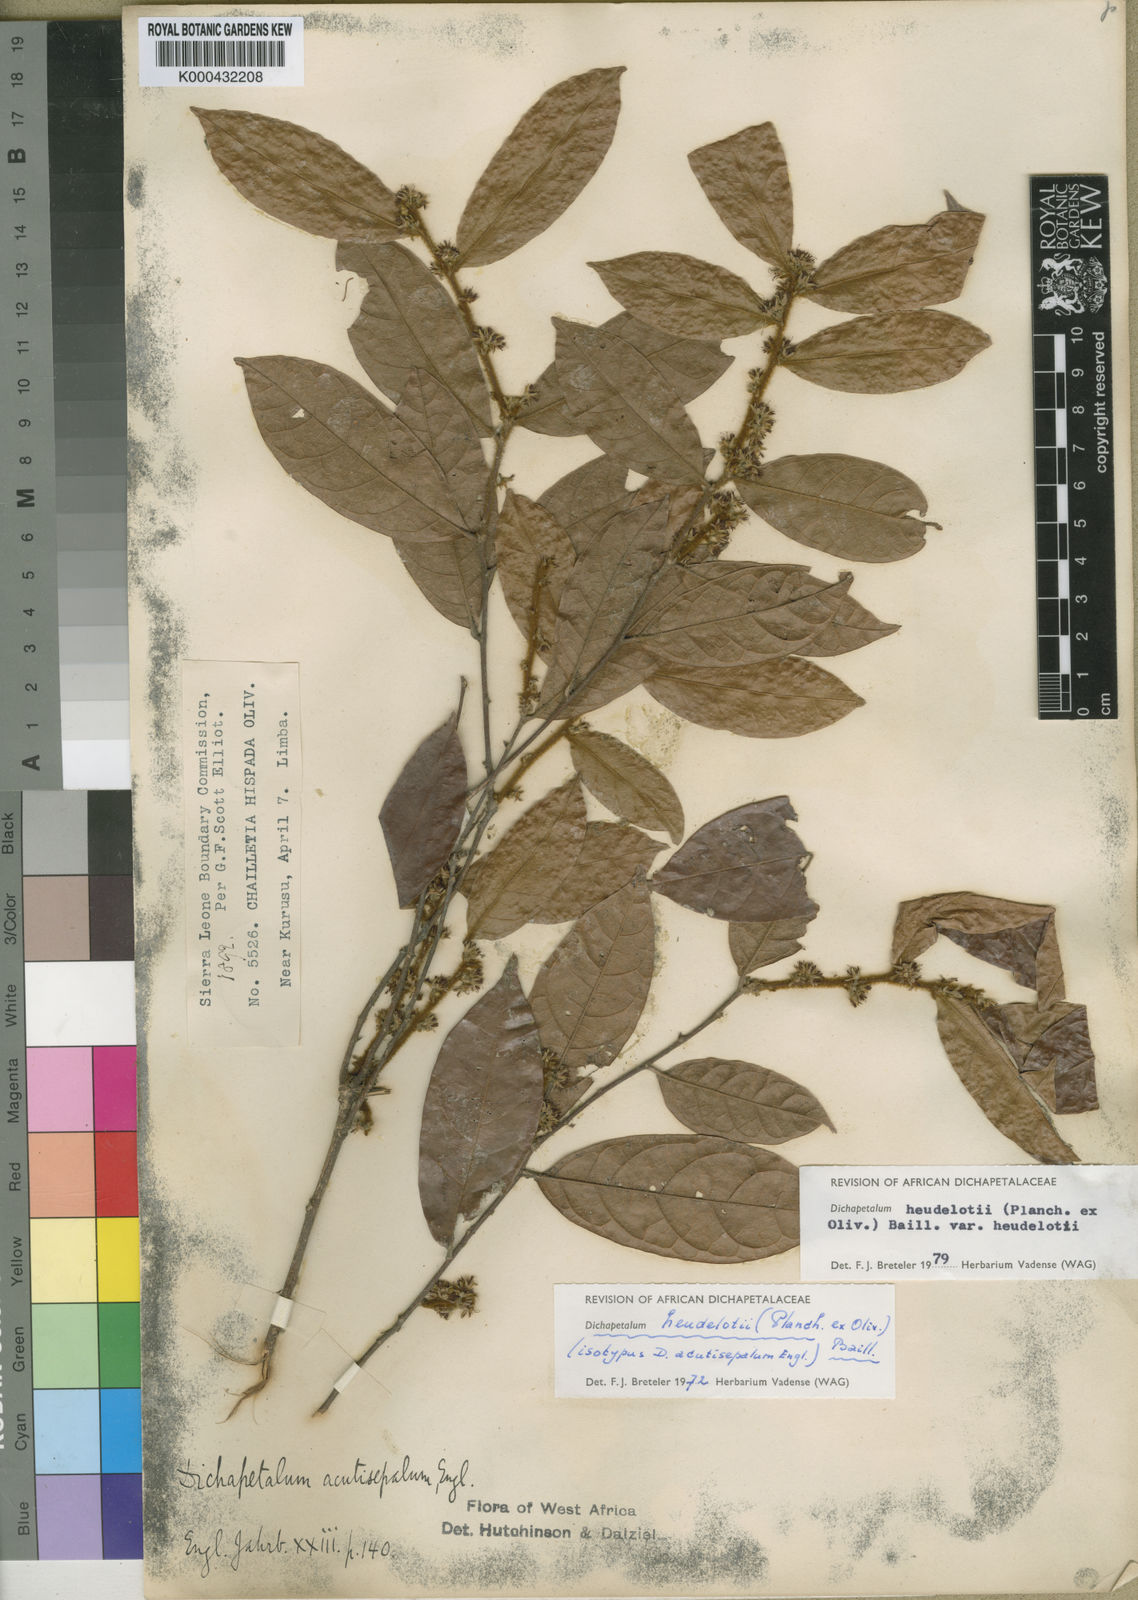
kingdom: Plantae
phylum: Tracheophyta
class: Magnoliopsida
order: Malpighiales
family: Dichapetalaceae
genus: Dichapetalum
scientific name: Dichapetalum heudelotii
